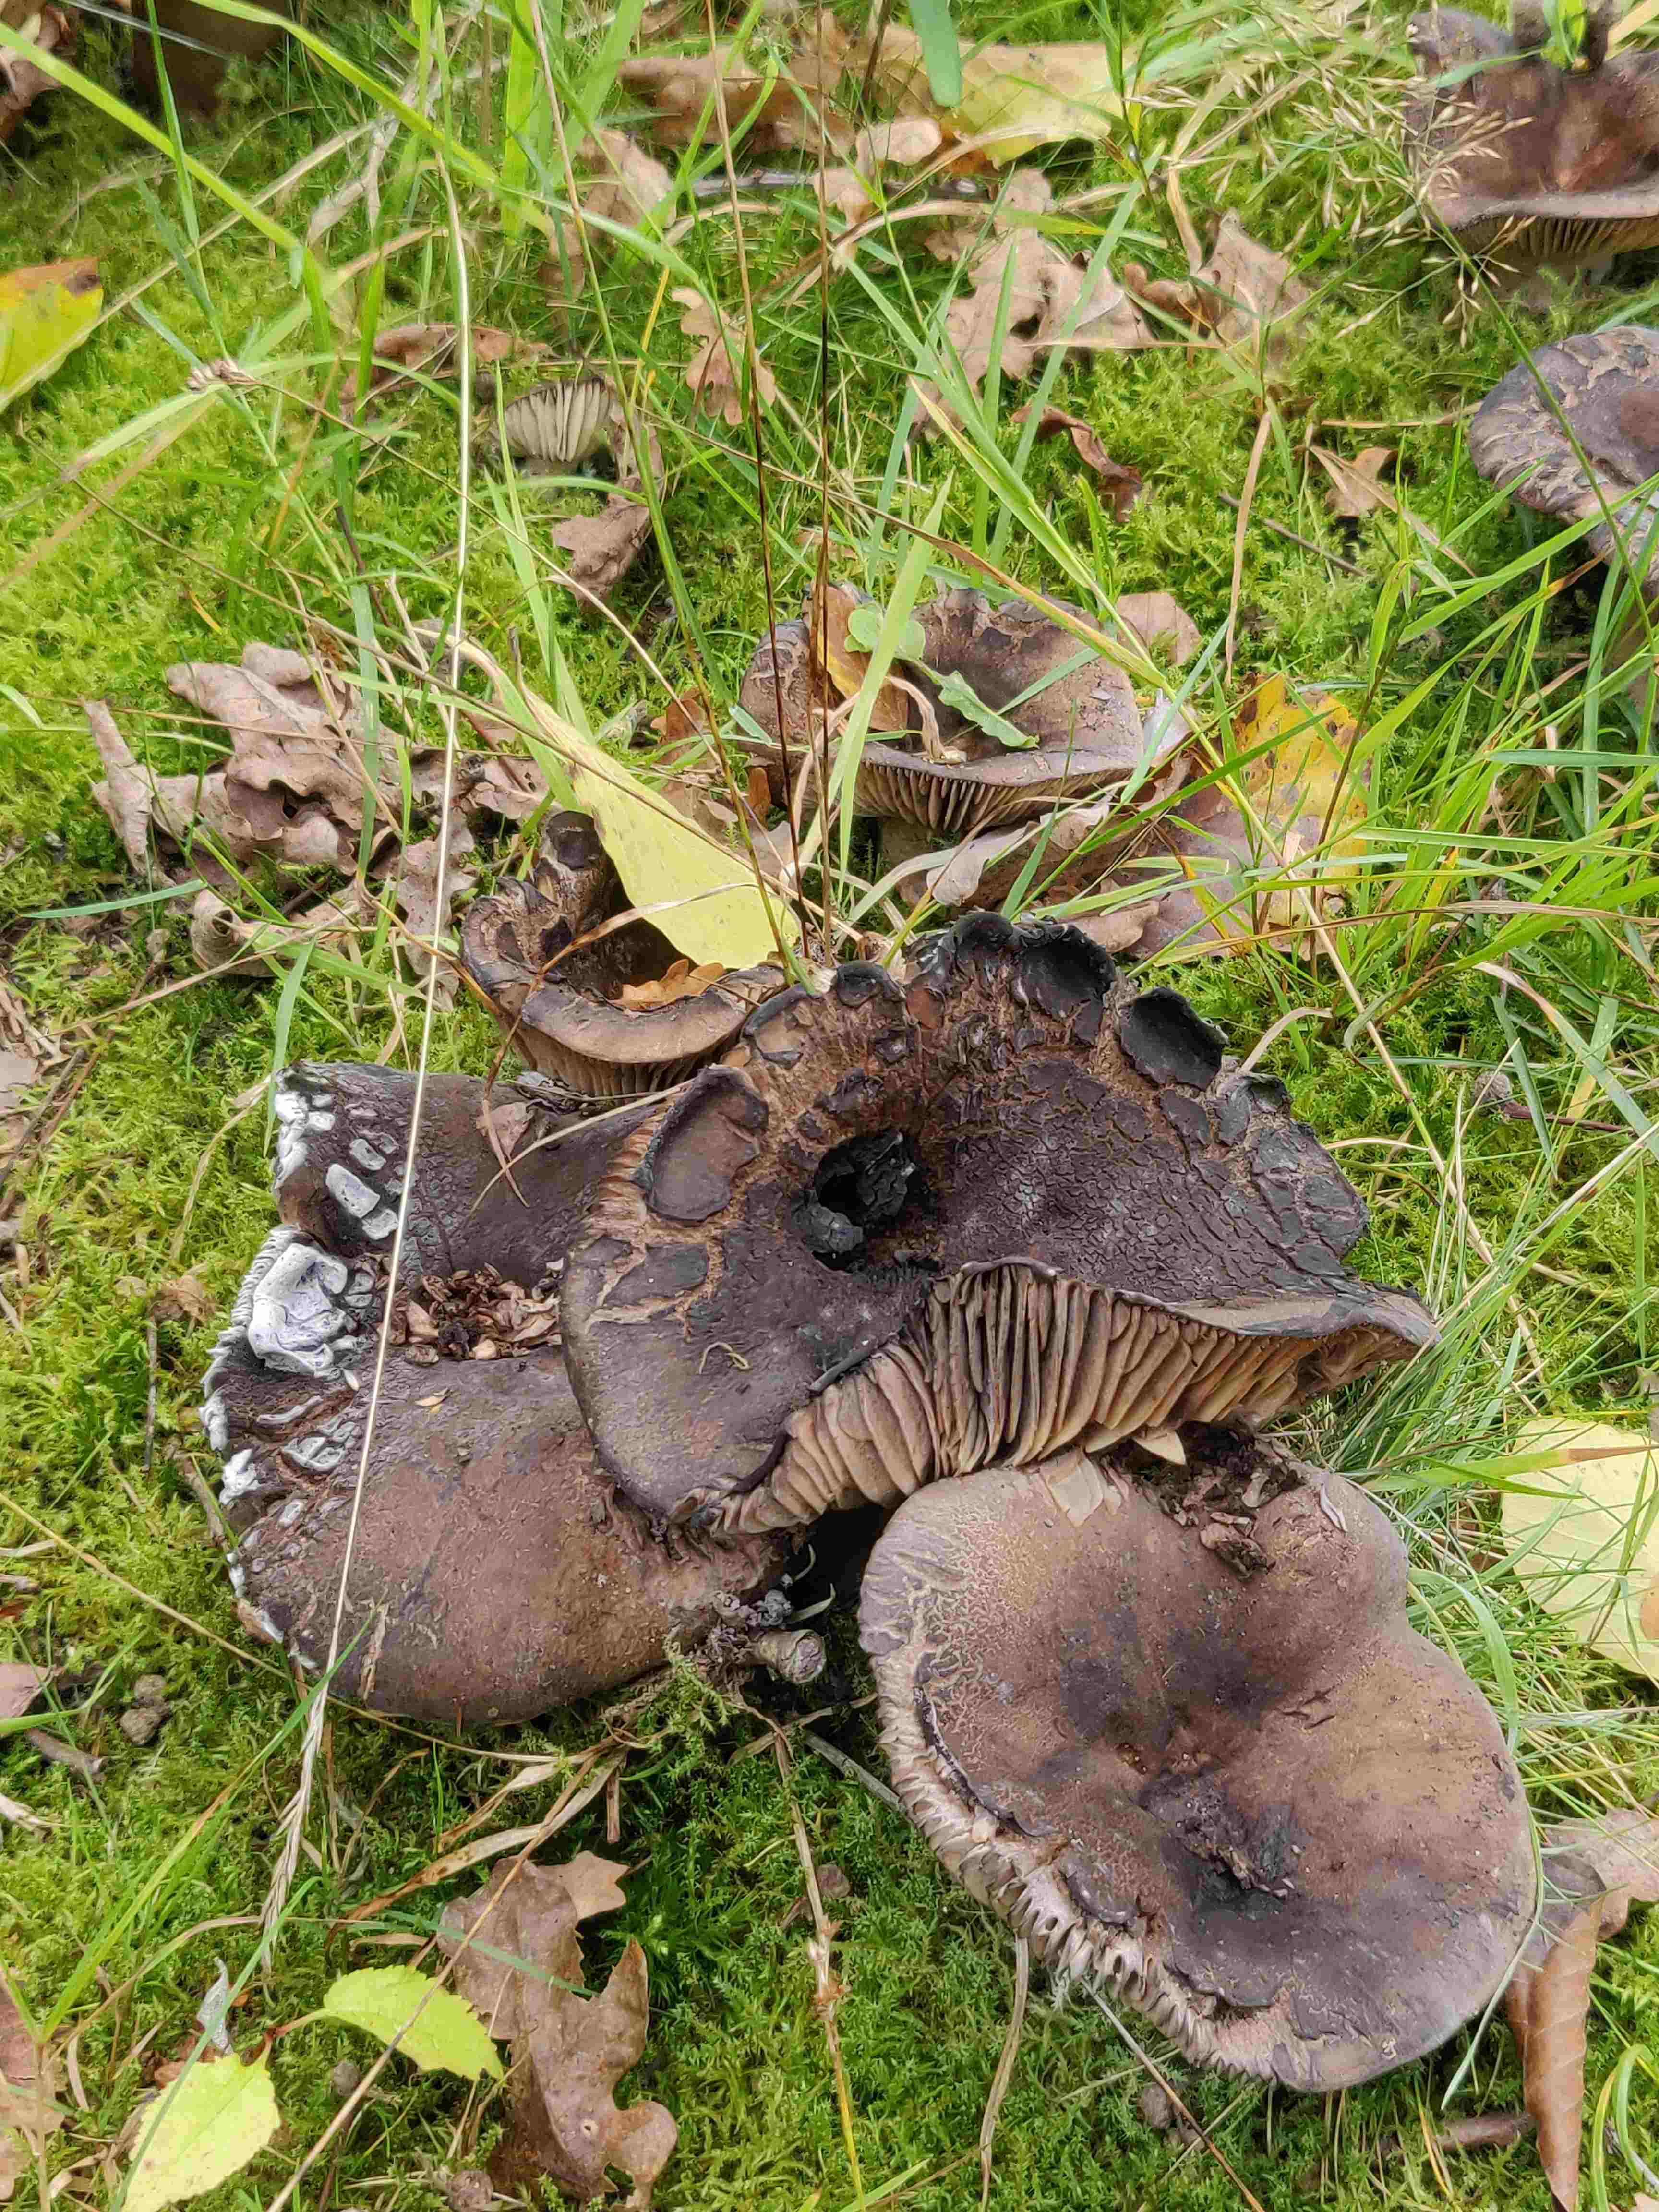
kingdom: Fungi
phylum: Basidiomycota
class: Agaricomycetes
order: Russulales
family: Russulaceae
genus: Russula
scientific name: Russula adusta
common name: sværtende skørhat
